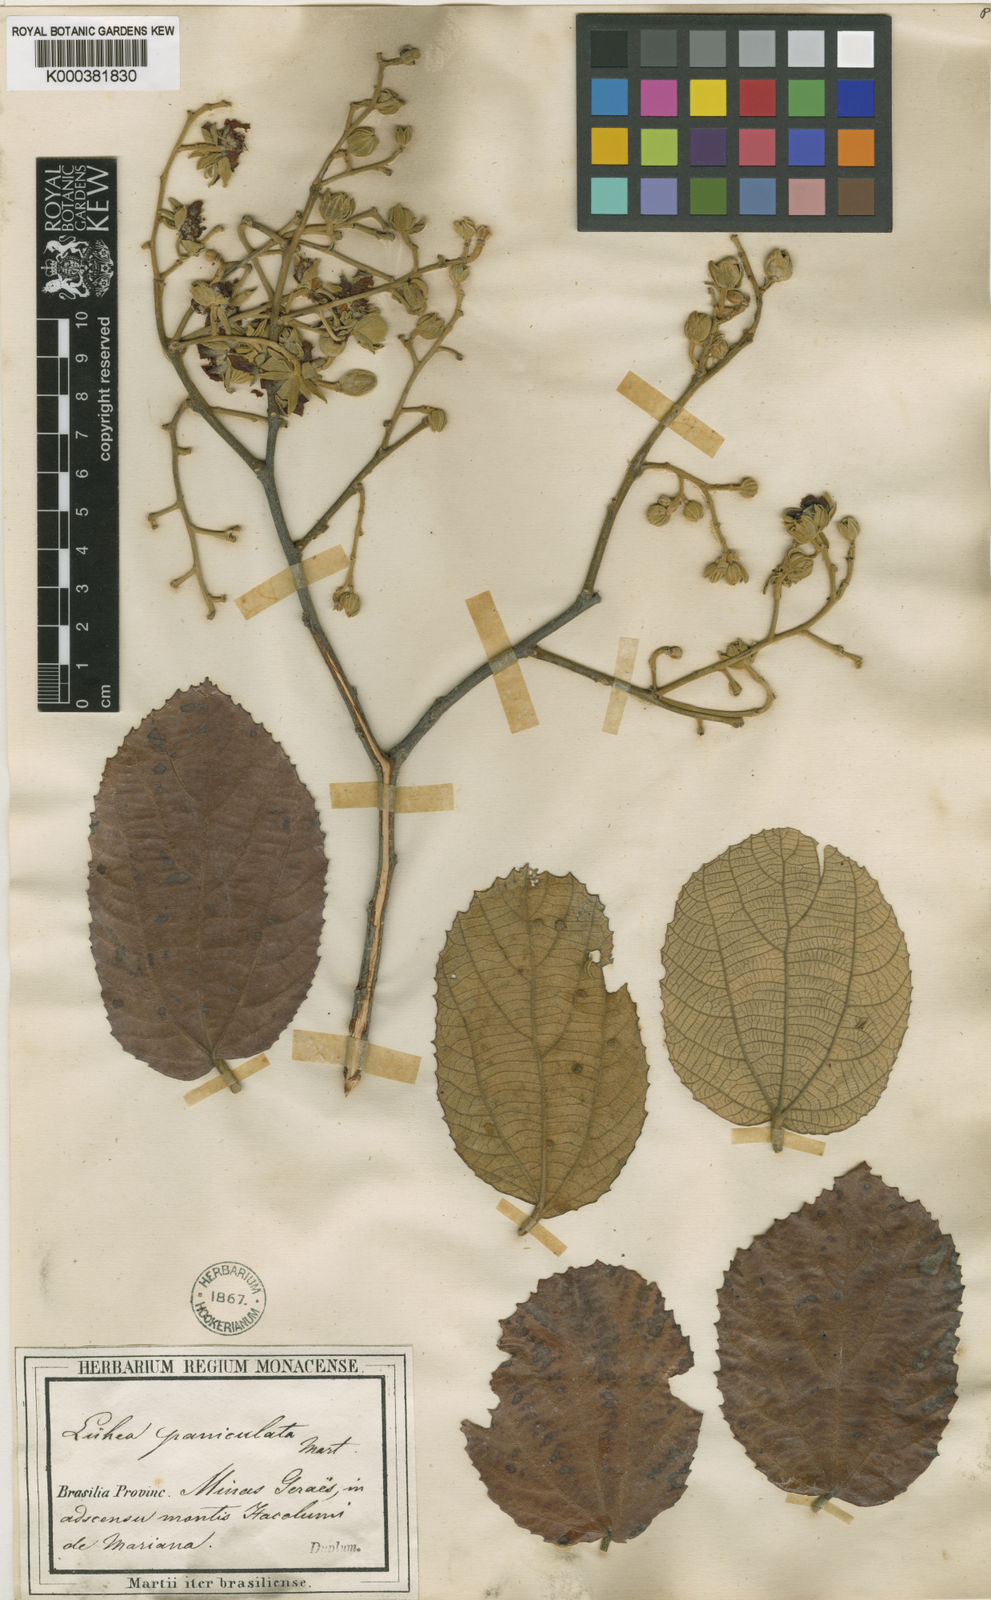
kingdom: Plantae
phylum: Tracheophyta
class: Magnoliopsida
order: Malvales
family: Malvaceae
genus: Luehea
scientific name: Luehea divaricata
